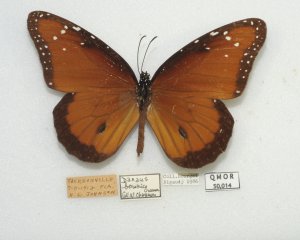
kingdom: Animalia
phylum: Arthropoda
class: Insecta
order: Lepidoptera
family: Nymphalidae
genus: Danaus
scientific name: Danaus gilippus
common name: Queen
